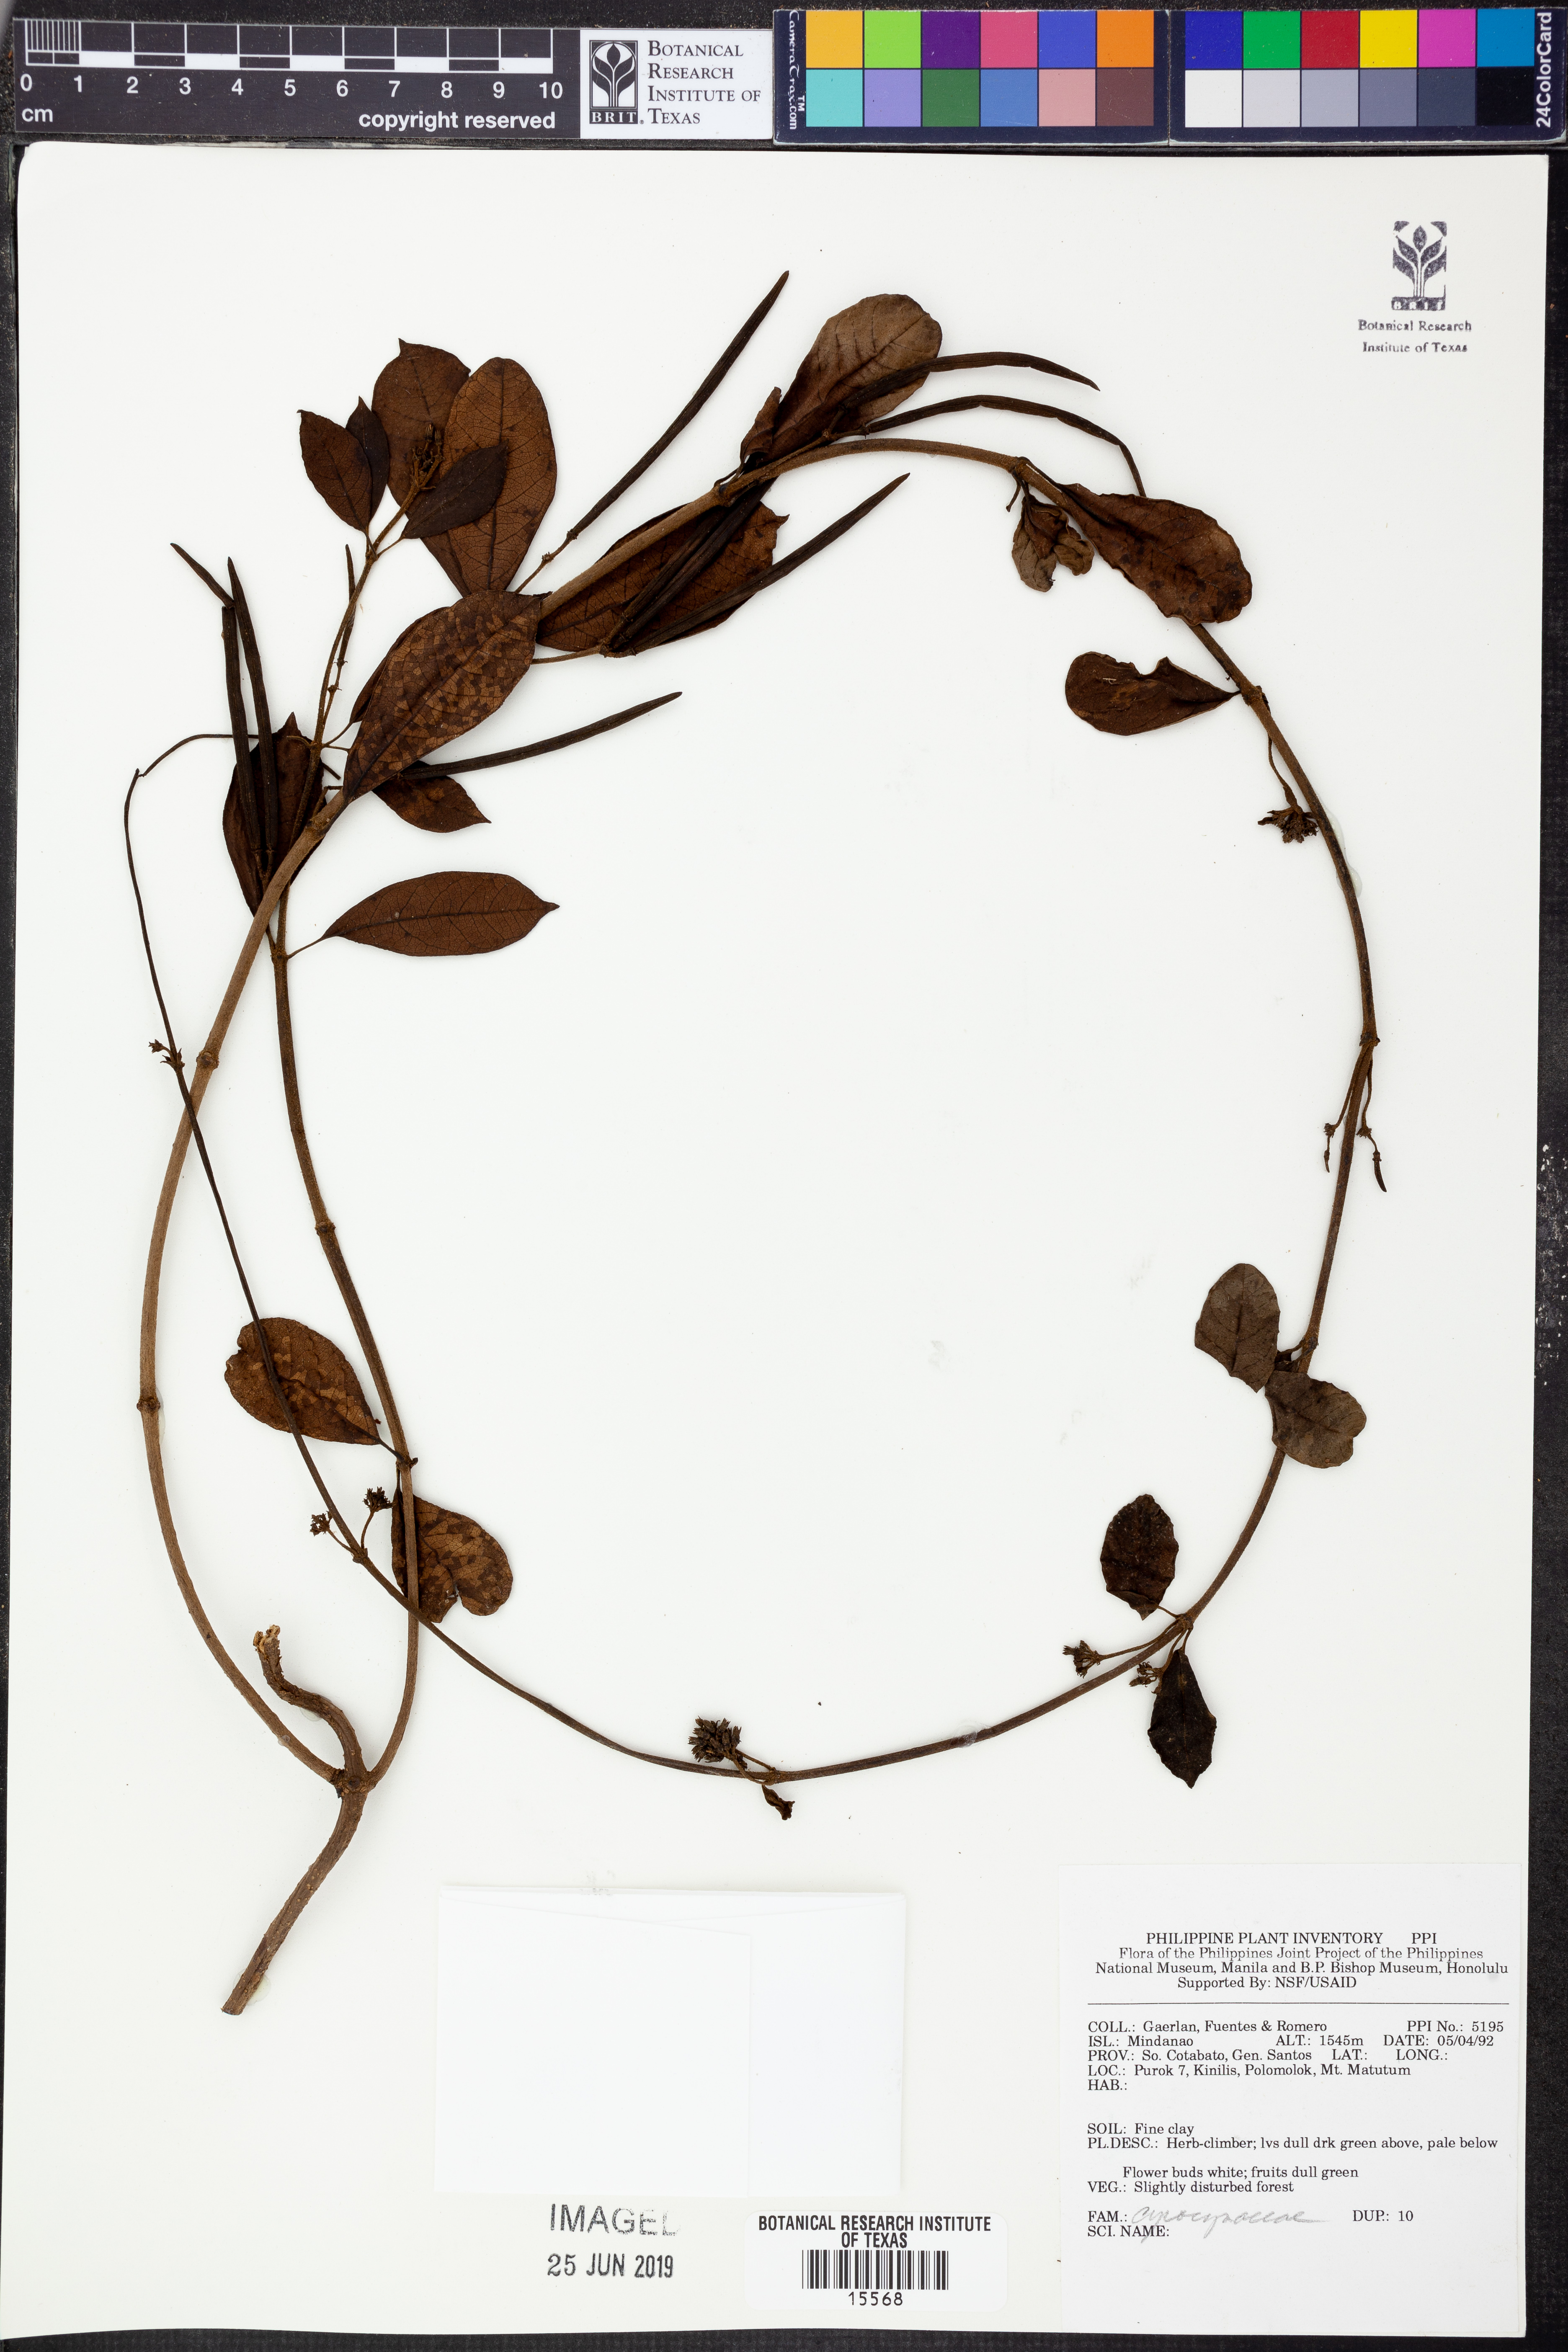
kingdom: Plantae
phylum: Tracheophyta
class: Magnoliopsida
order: Gentianales
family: Apocynaceae
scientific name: Apocynaceae
